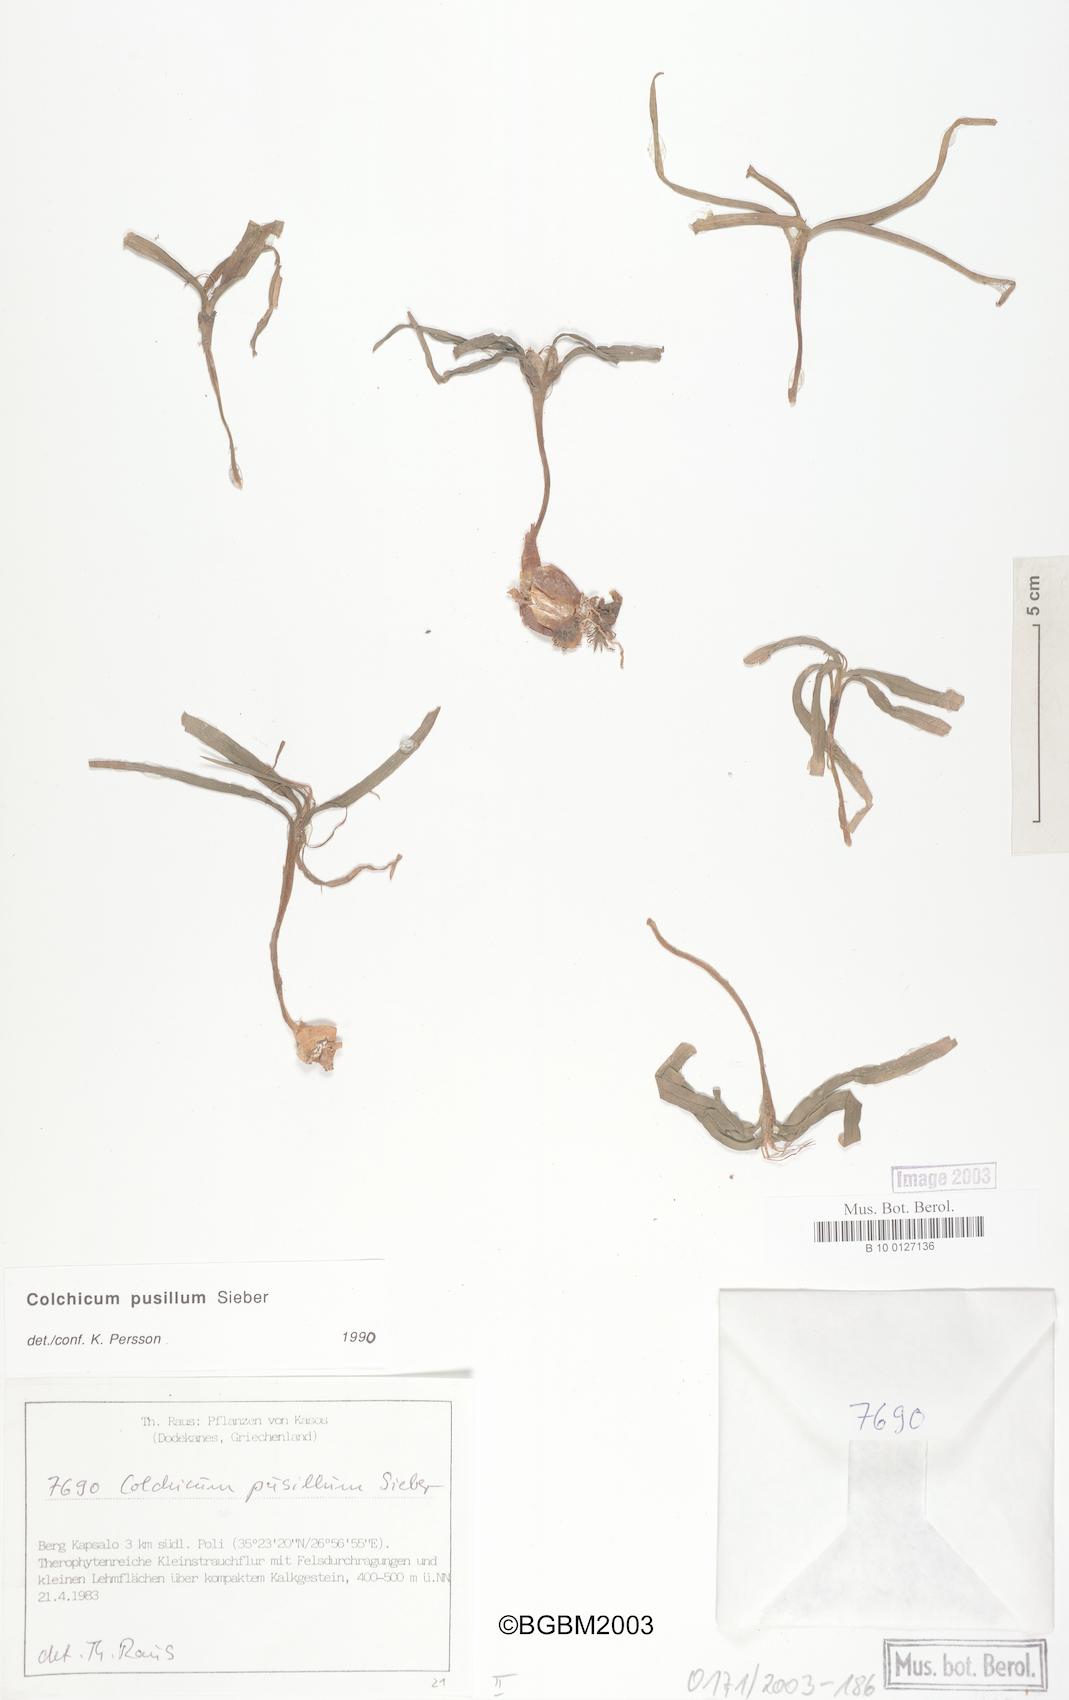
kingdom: Plantae
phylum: Tracheophyta
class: Liliopsida
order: Liliales
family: Colchicaceae
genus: Colchicum
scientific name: Colchicum pusillum
